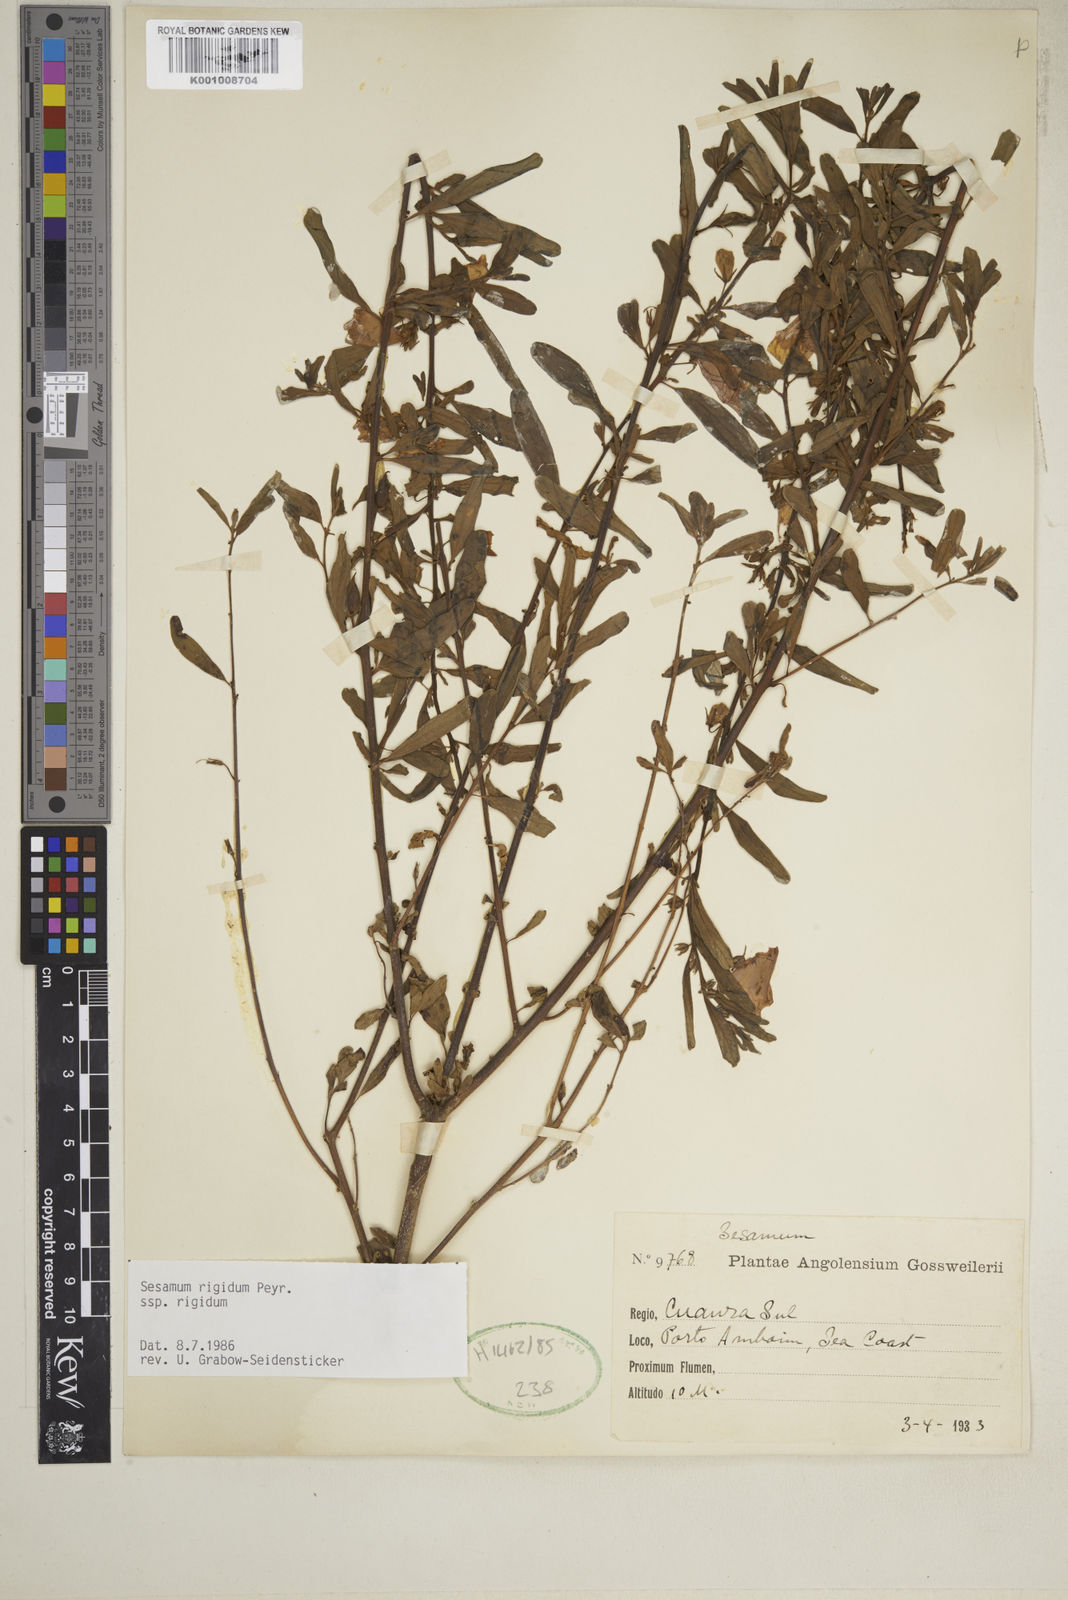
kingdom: Plantae
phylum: Tracheophyta
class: Magnoliopsida
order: Lamiales
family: Pedaliaceae
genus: Sesamum
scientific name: Sesamum rigidum
